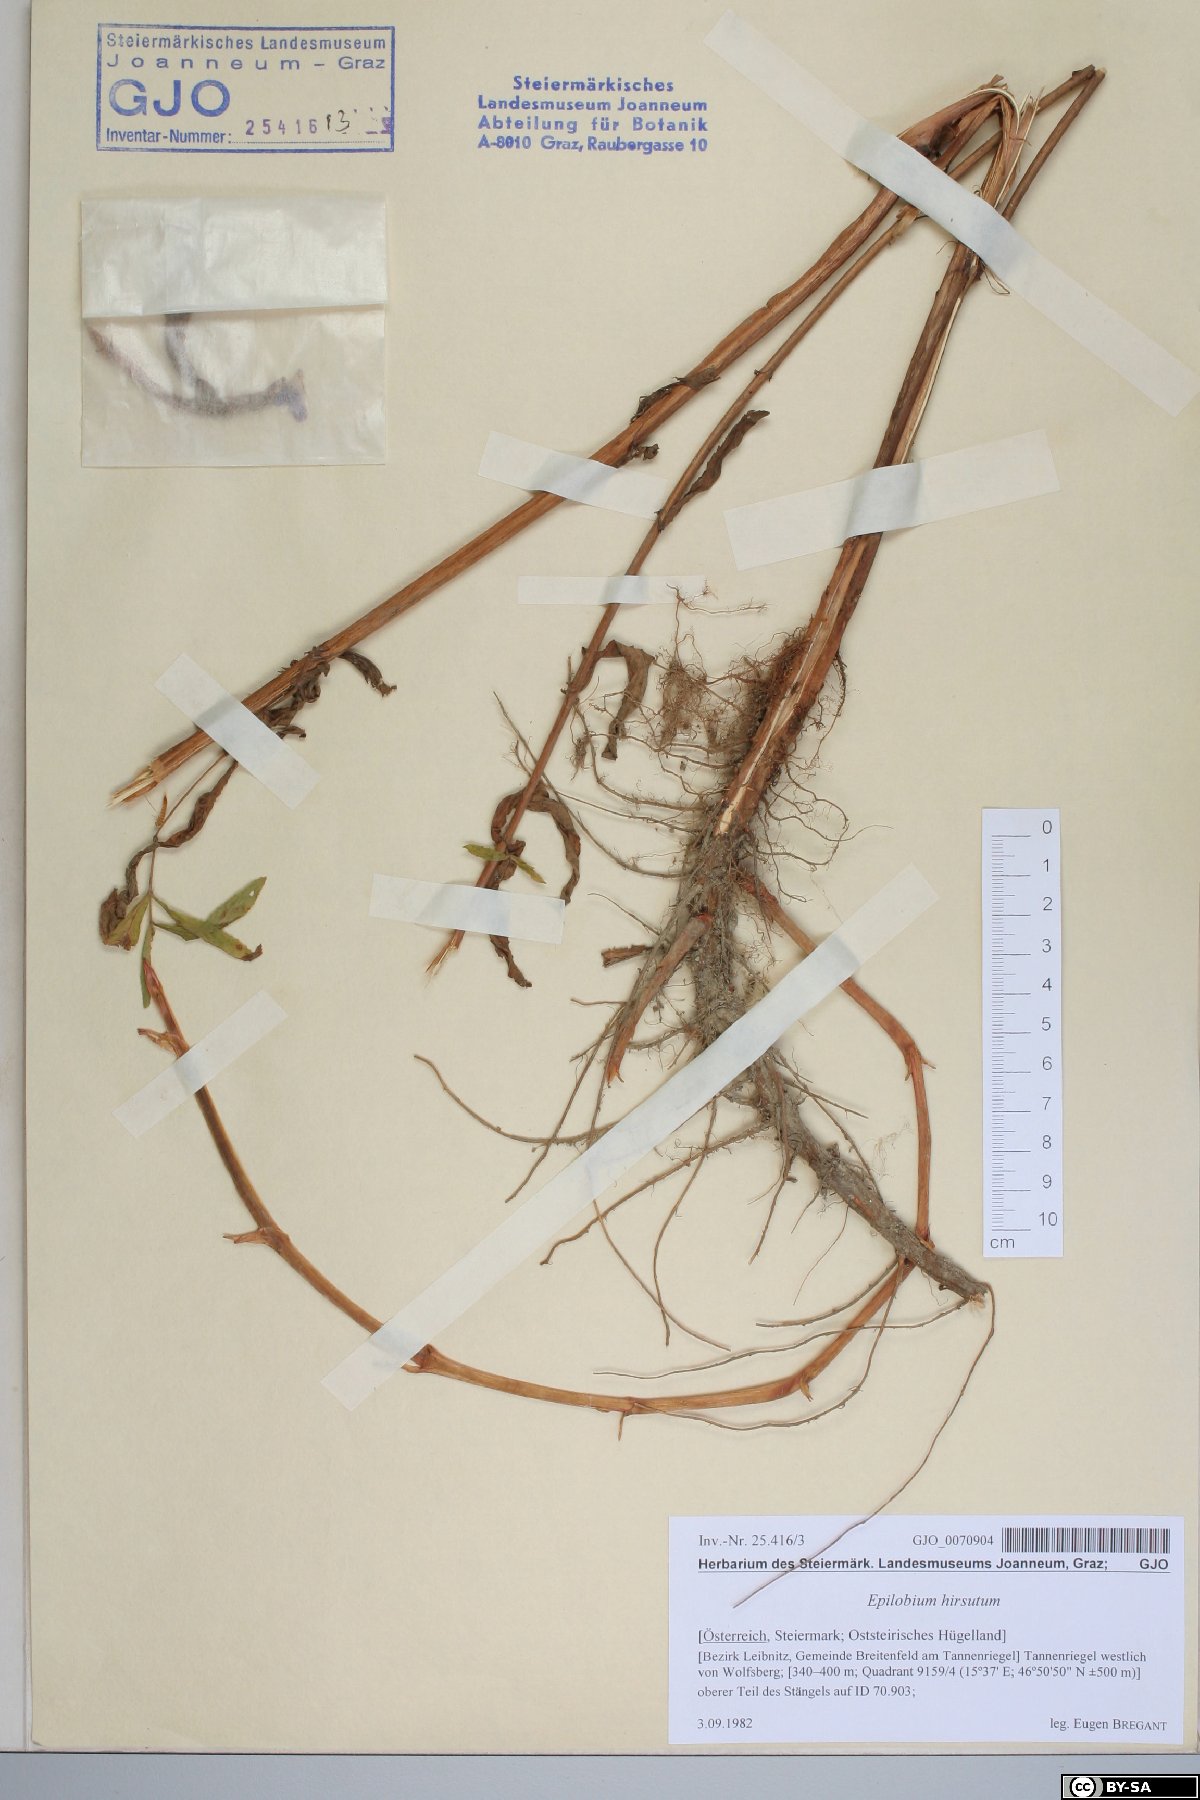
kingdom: Plantae
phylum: Tracheophyta
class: Magnoliopsida
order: Myrtales
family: Onagraceae
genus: Epilobium
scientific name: Epilobium hirsutum
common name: Great willowherb
